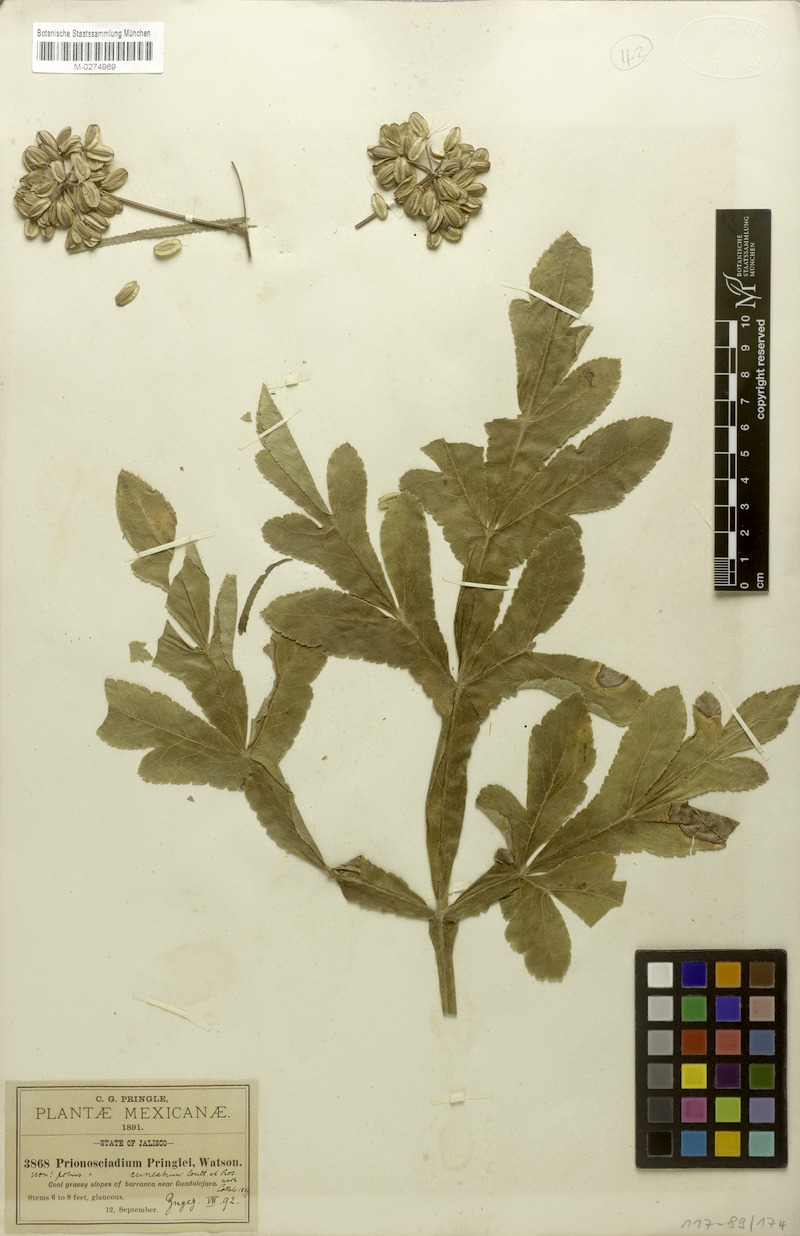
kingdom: Plantae
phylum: Tracheophyta
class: Magnoliopsida
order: Apiales
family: Apiaceae
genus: Prionosciadium
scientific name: Prionosciadium cuneatum
